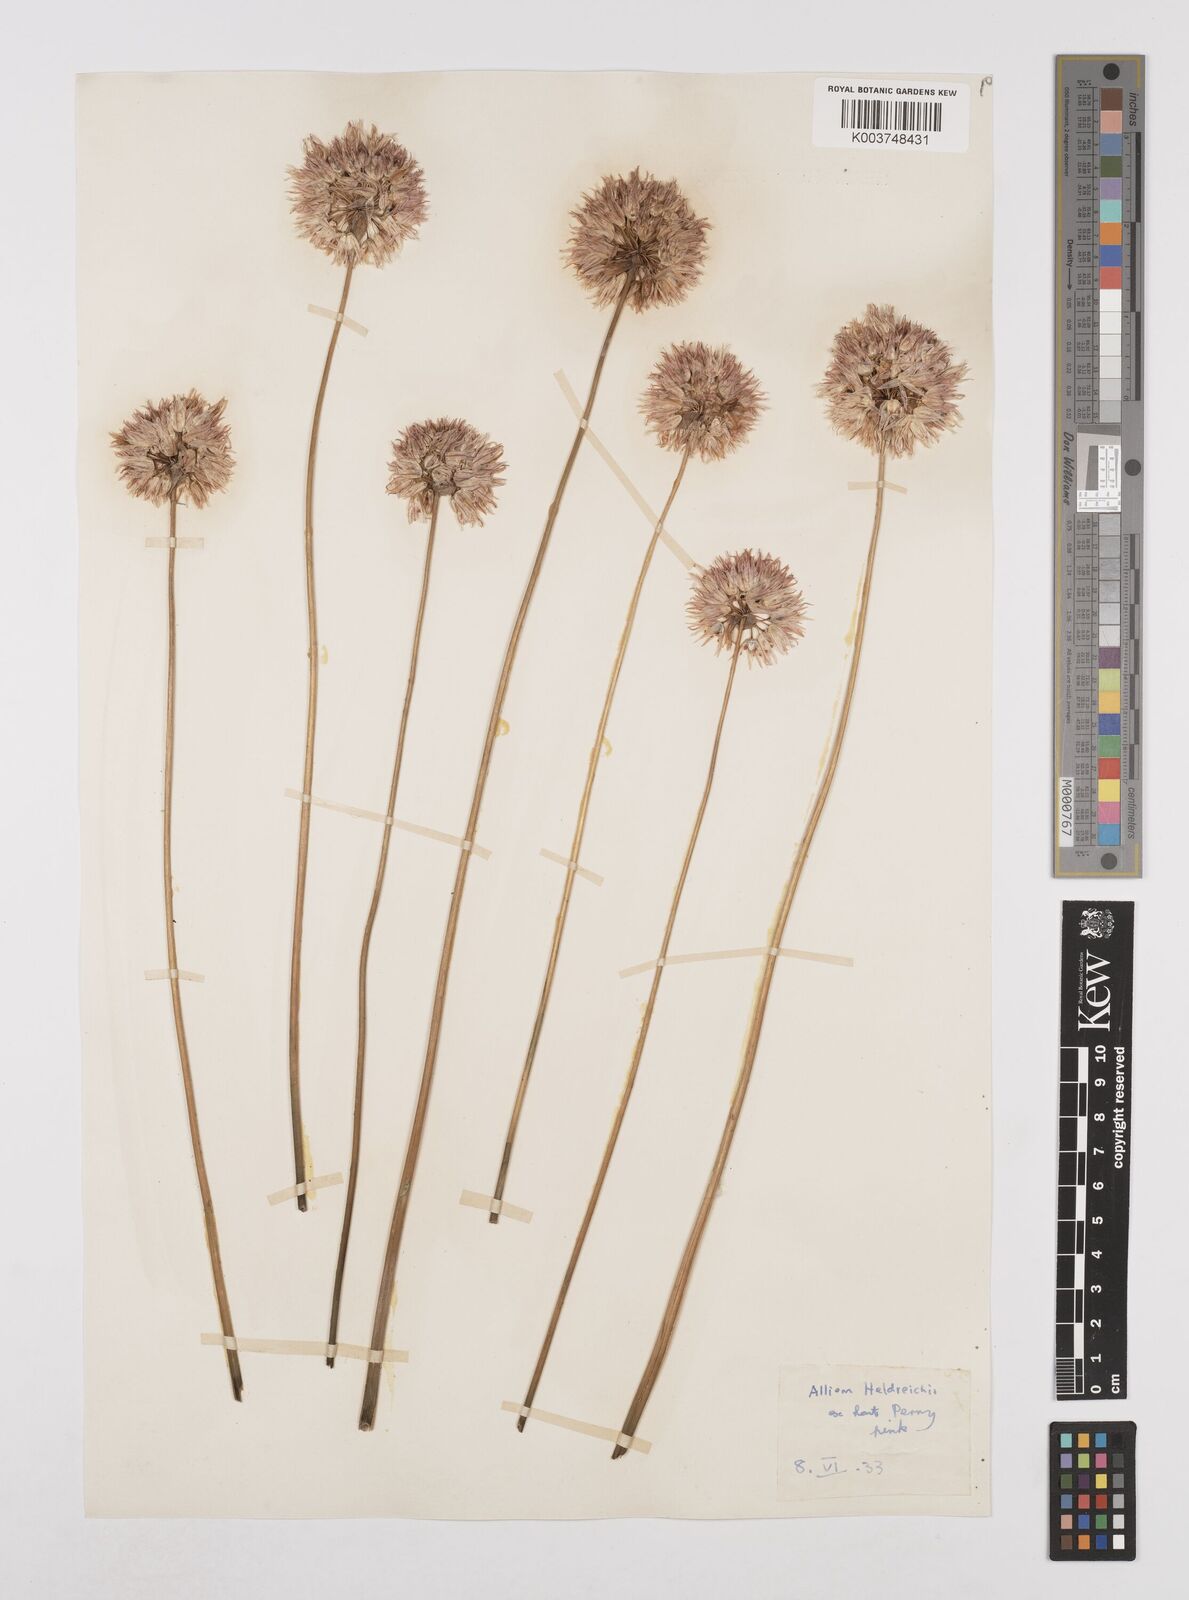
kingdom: Plantae
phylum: Tracheophyta
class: Liliopsida
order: Asparagales
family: Amaryllidaceae
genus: Allium
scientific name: Allium heldreichii
